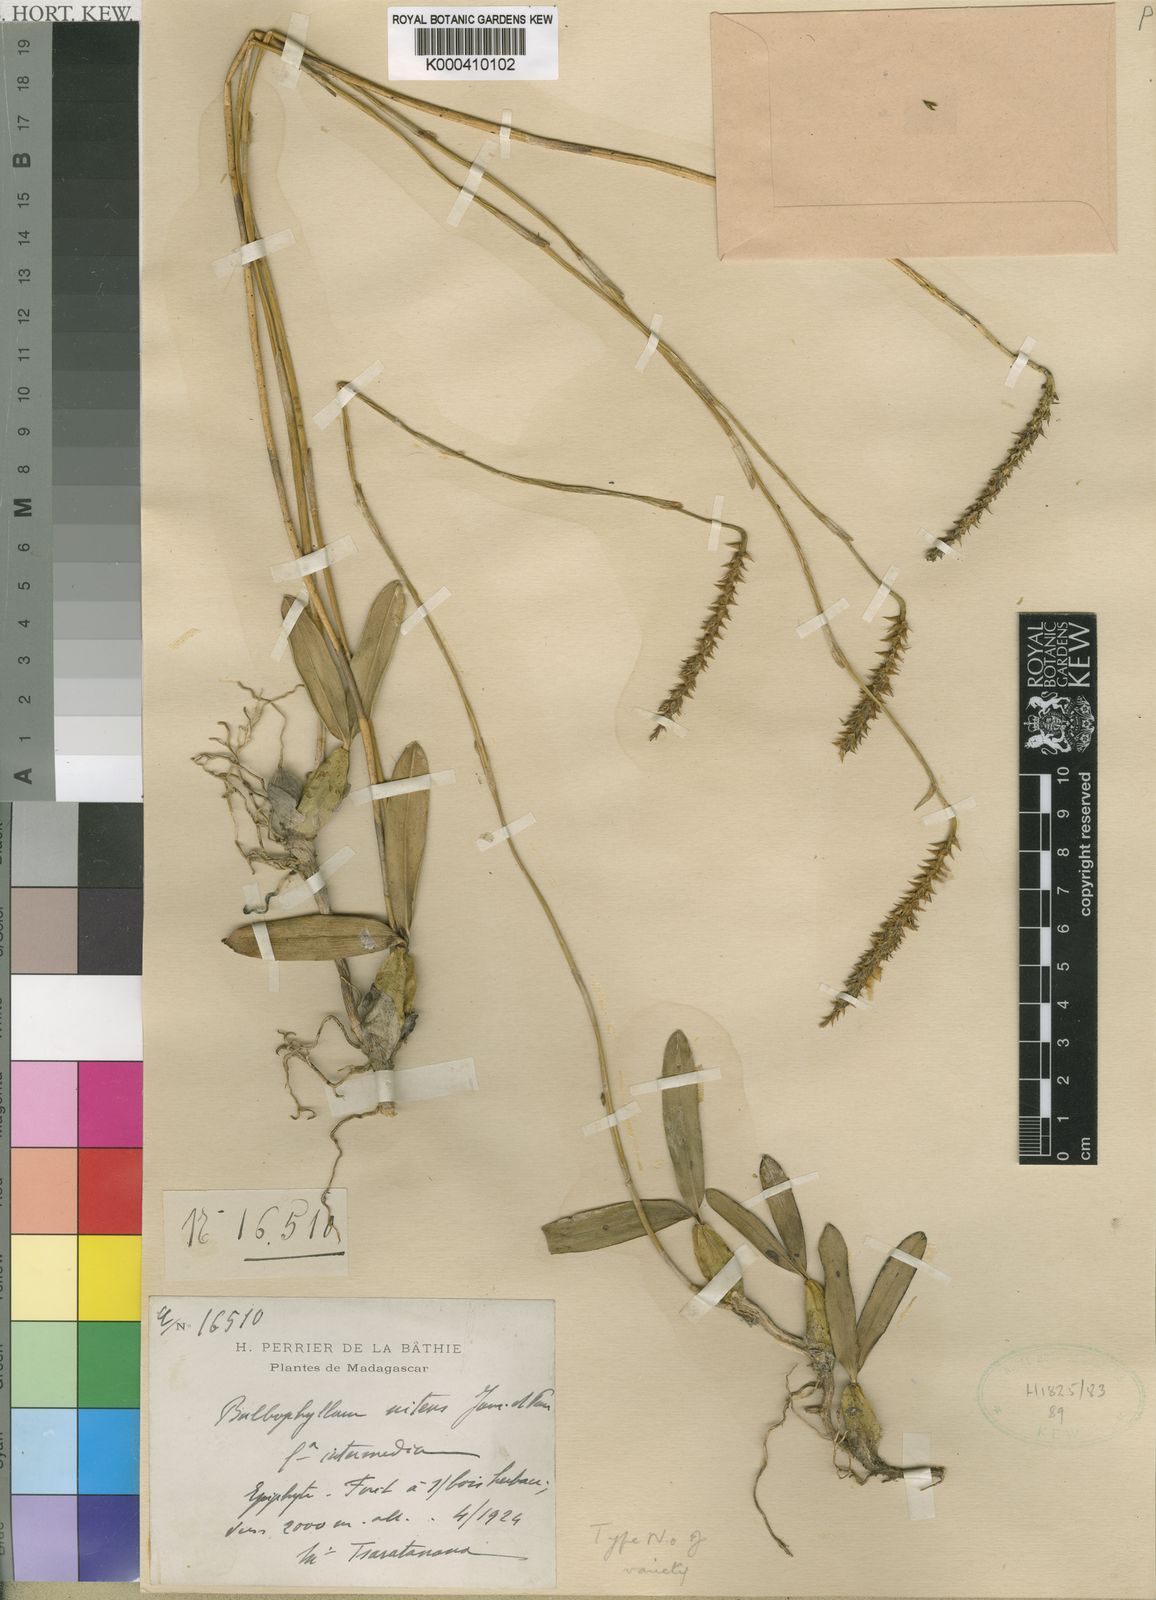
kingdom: Plantae
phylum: Tracheophyta
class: Liliopsida
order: Asparagales
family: Orchidaceae
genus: Bulbophyllum
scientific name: Bulbophyllum nitens
